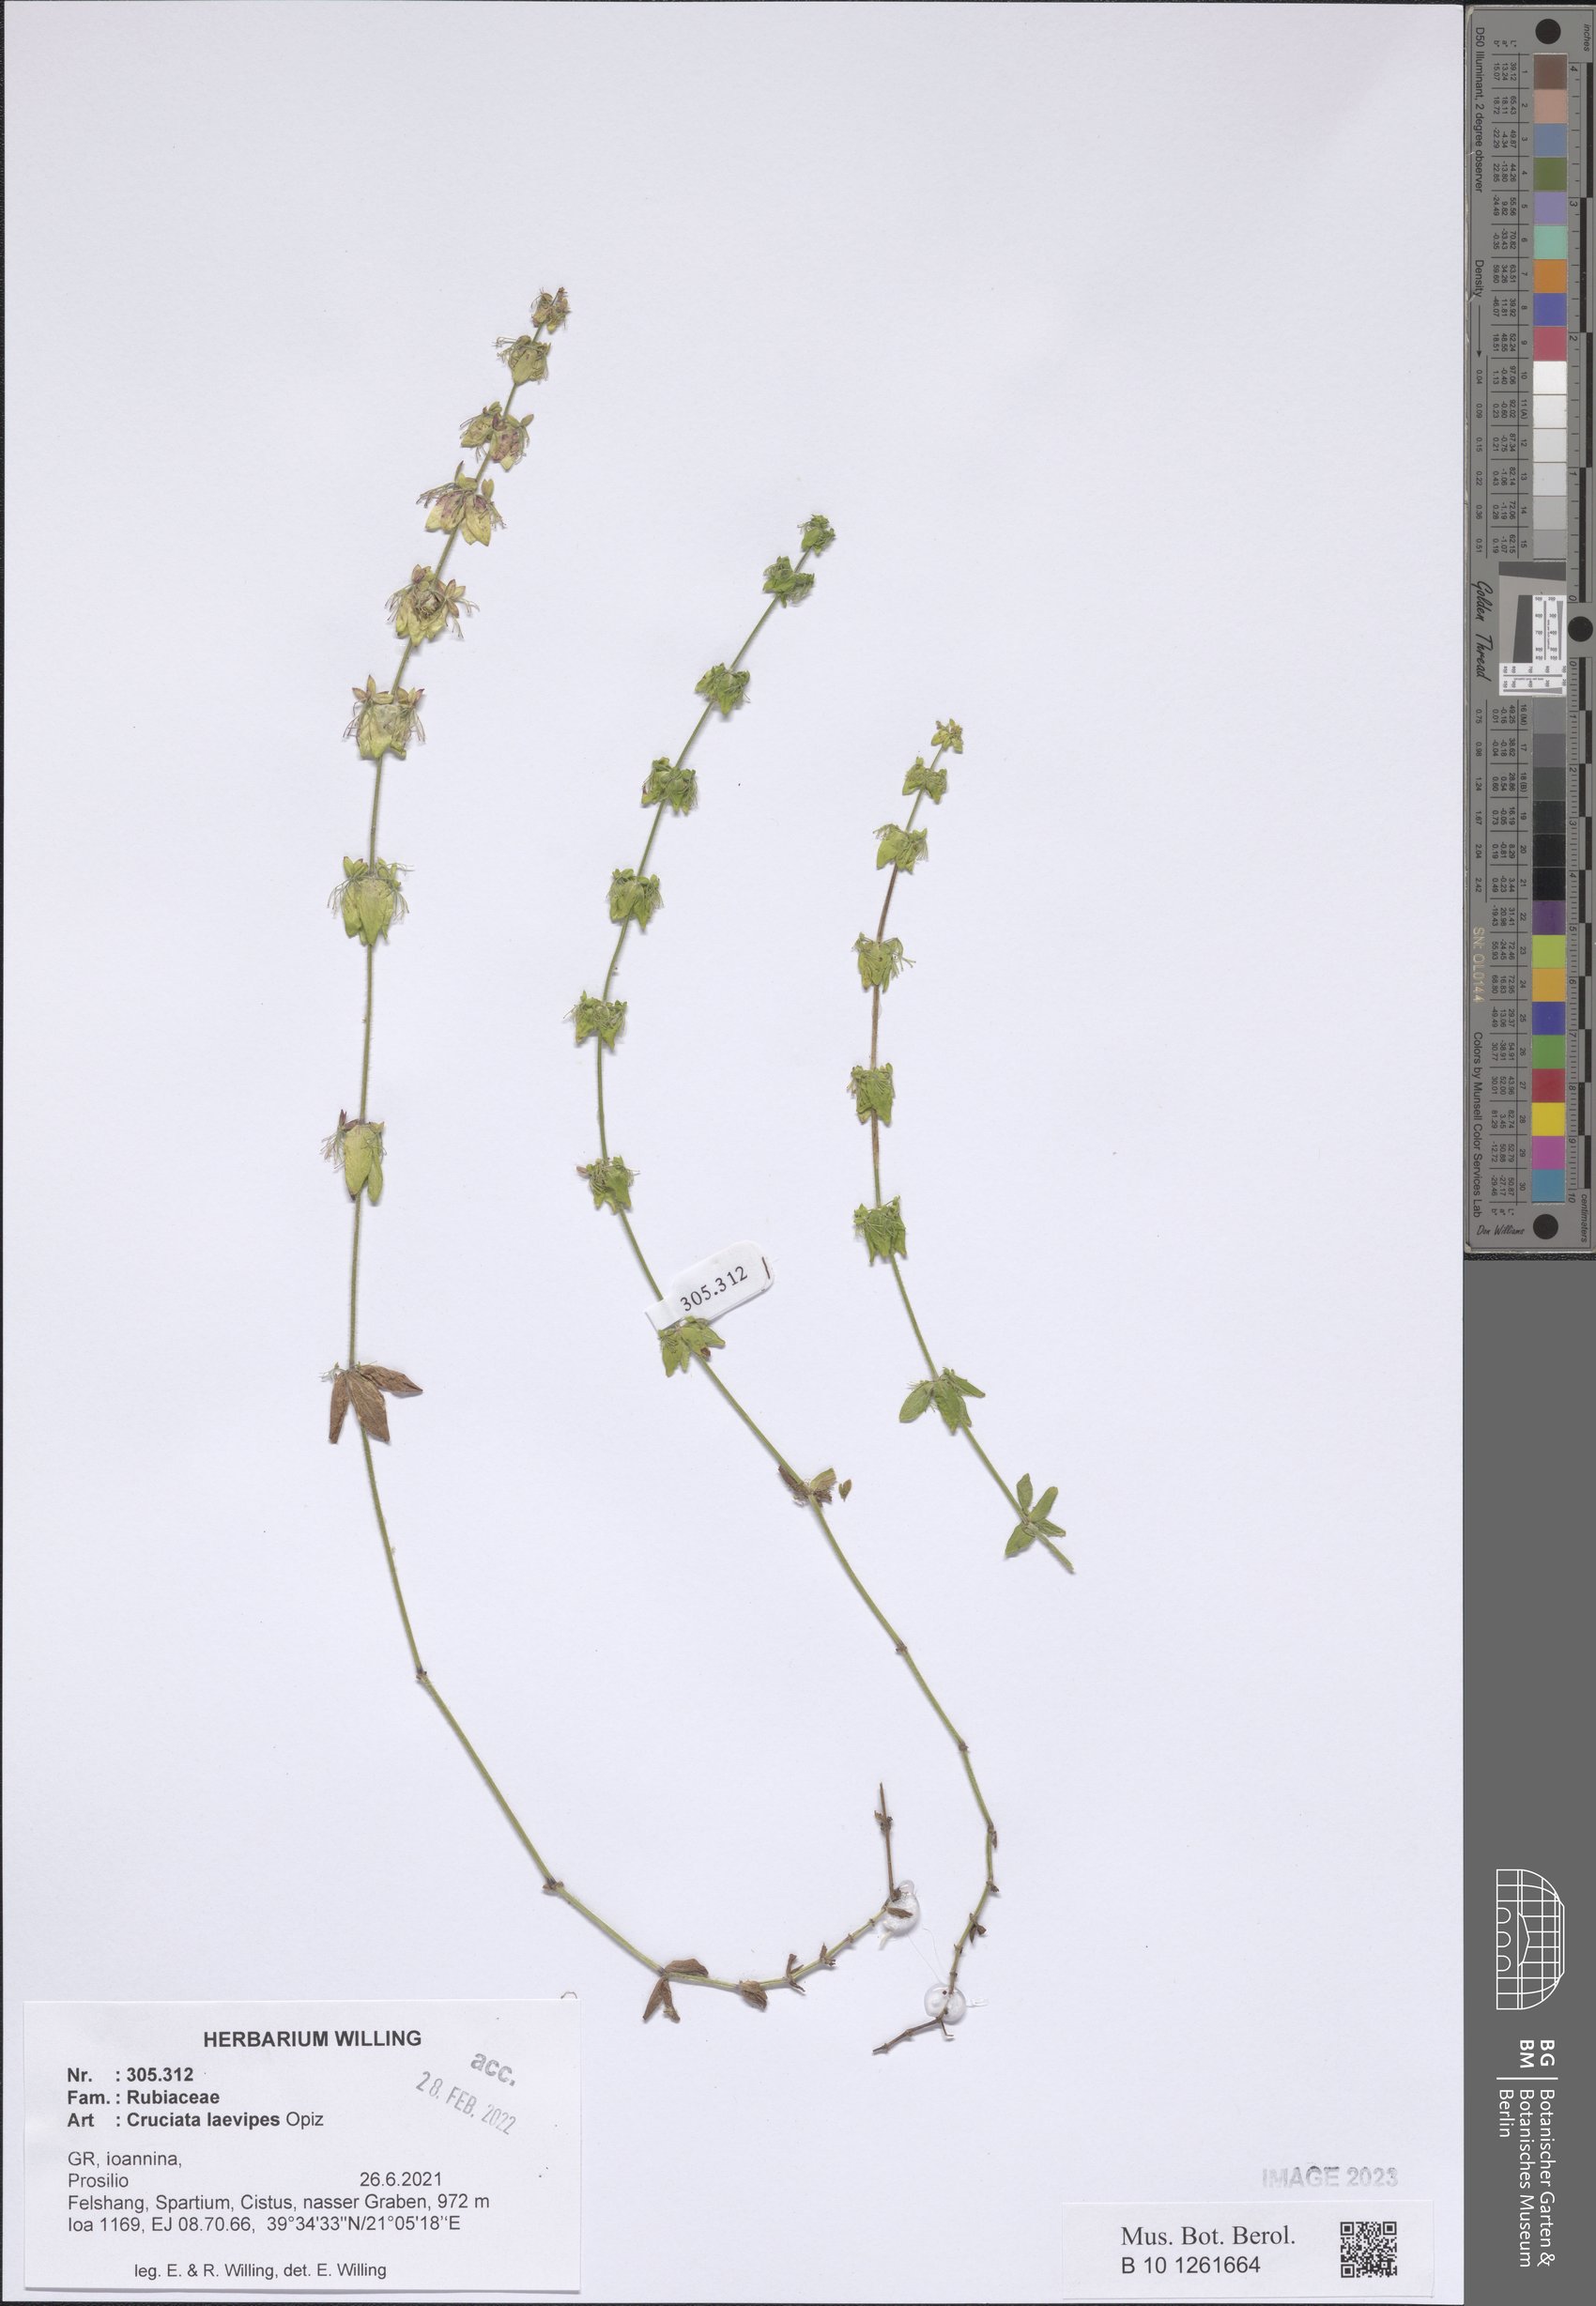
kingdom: Plantae
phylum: Tracheophyta
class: Magnoliopsida
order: Gentianales
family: Rubiaceae
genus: Cruciata
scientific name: Cruciata laevipes
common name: Crosswort
